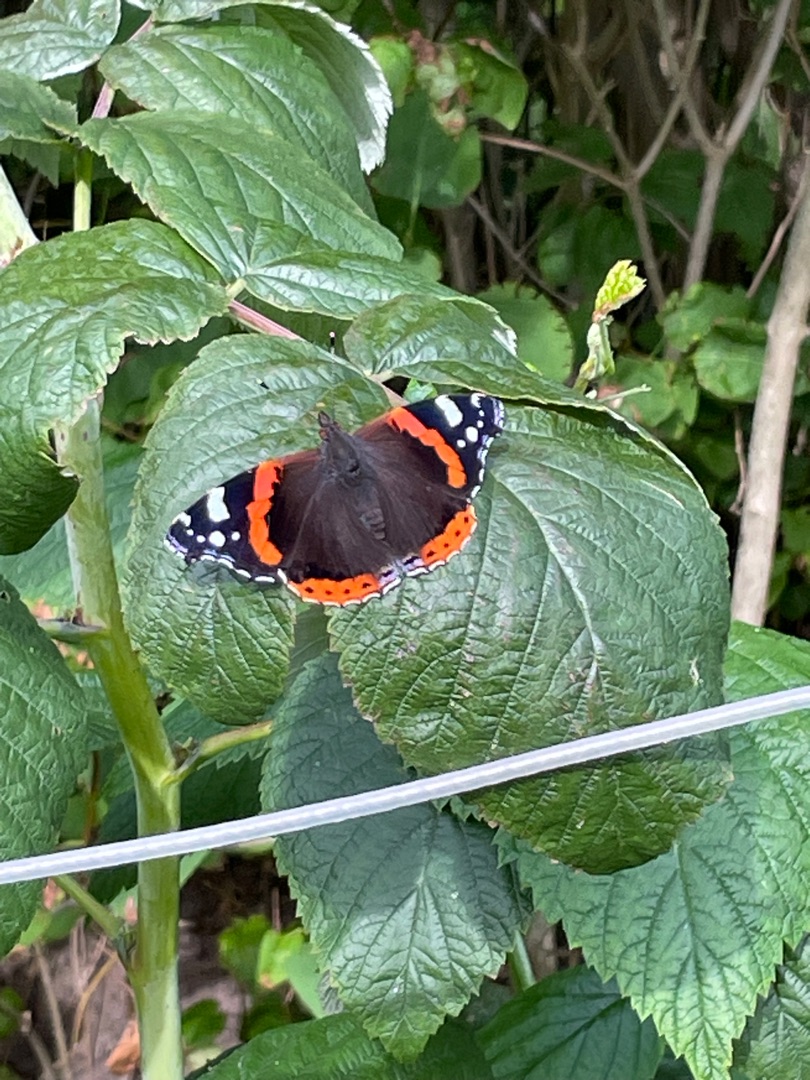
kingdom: Animalia
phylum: Arthropoda
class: Insecta
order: Lepidoptera
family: Nymphalidae
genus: Vanessa
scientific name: Vanessa atalanta
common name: Admiral
